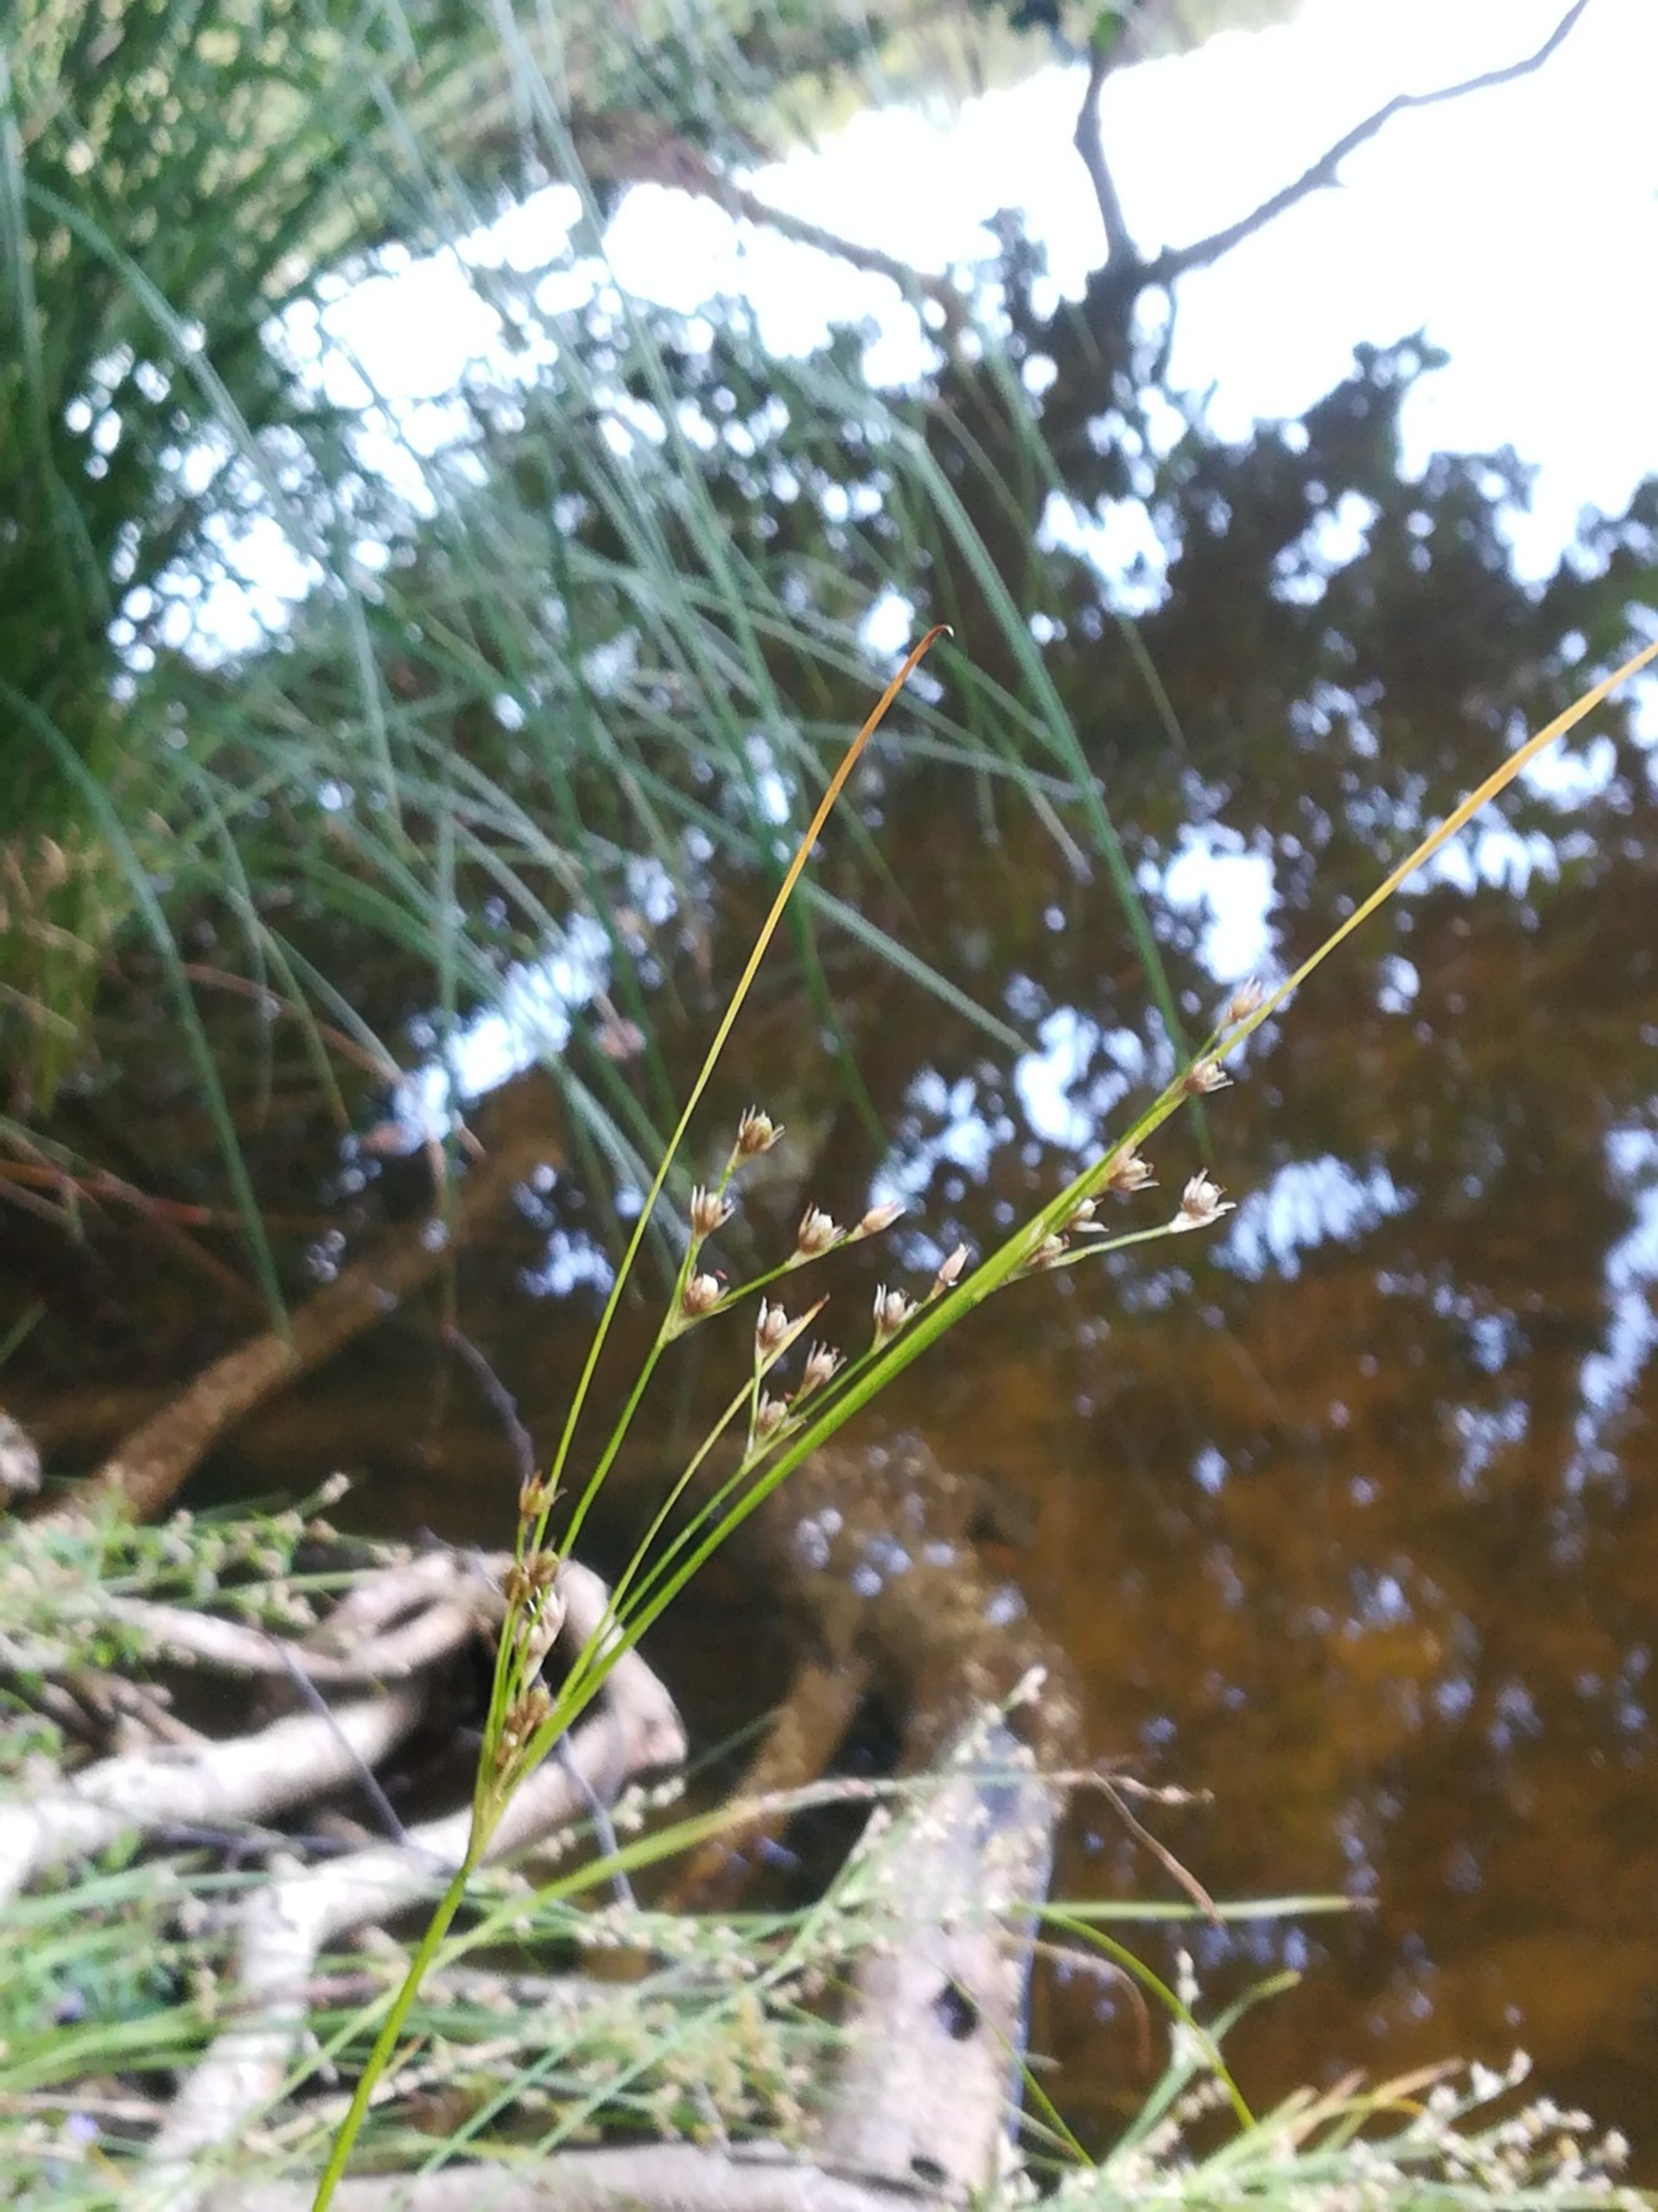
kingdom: Plantae
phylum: Tracheophyta
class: Liliopsida
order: Poales
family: Juncaceae
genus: Juncus
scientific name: Juncus tenuis
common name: Tue-siv
